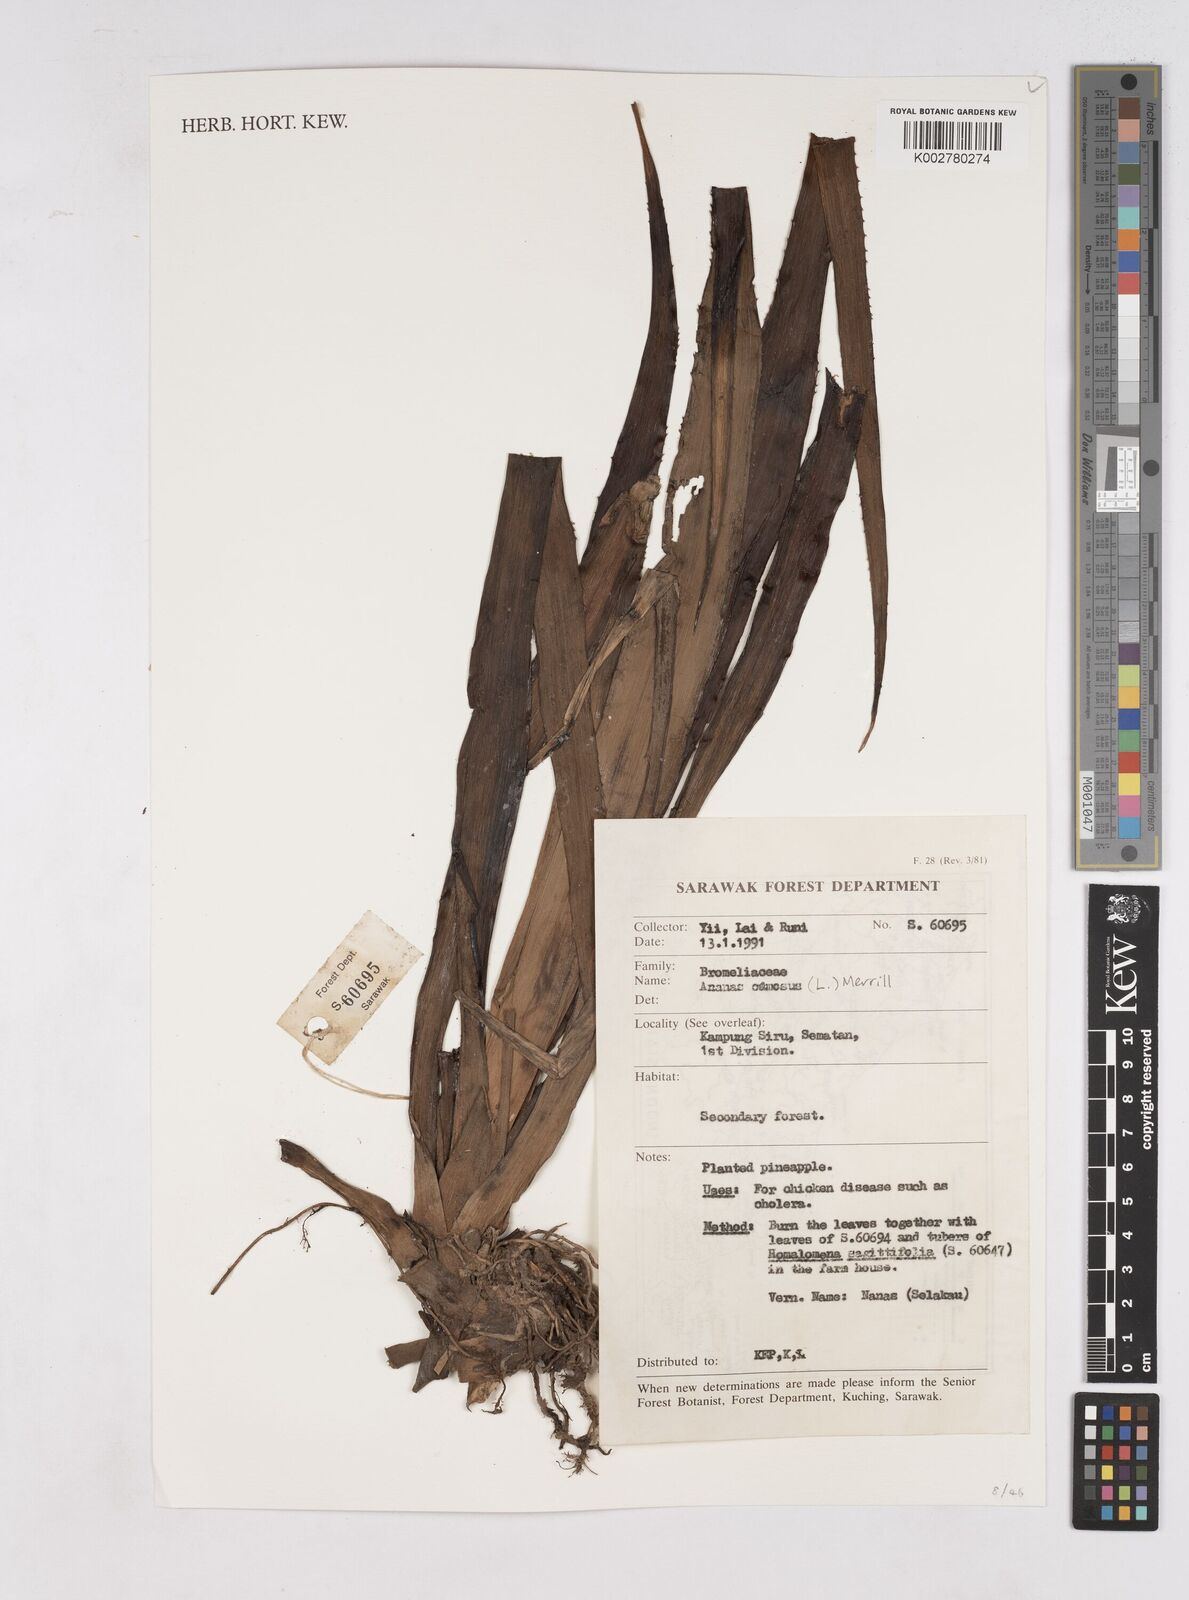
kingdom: Plantae
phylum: Tracheophyta
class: Liliopsida
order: Poales
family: Bromeliaceae
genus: Ananas
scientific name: Ananas comosus
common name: Pineapple
